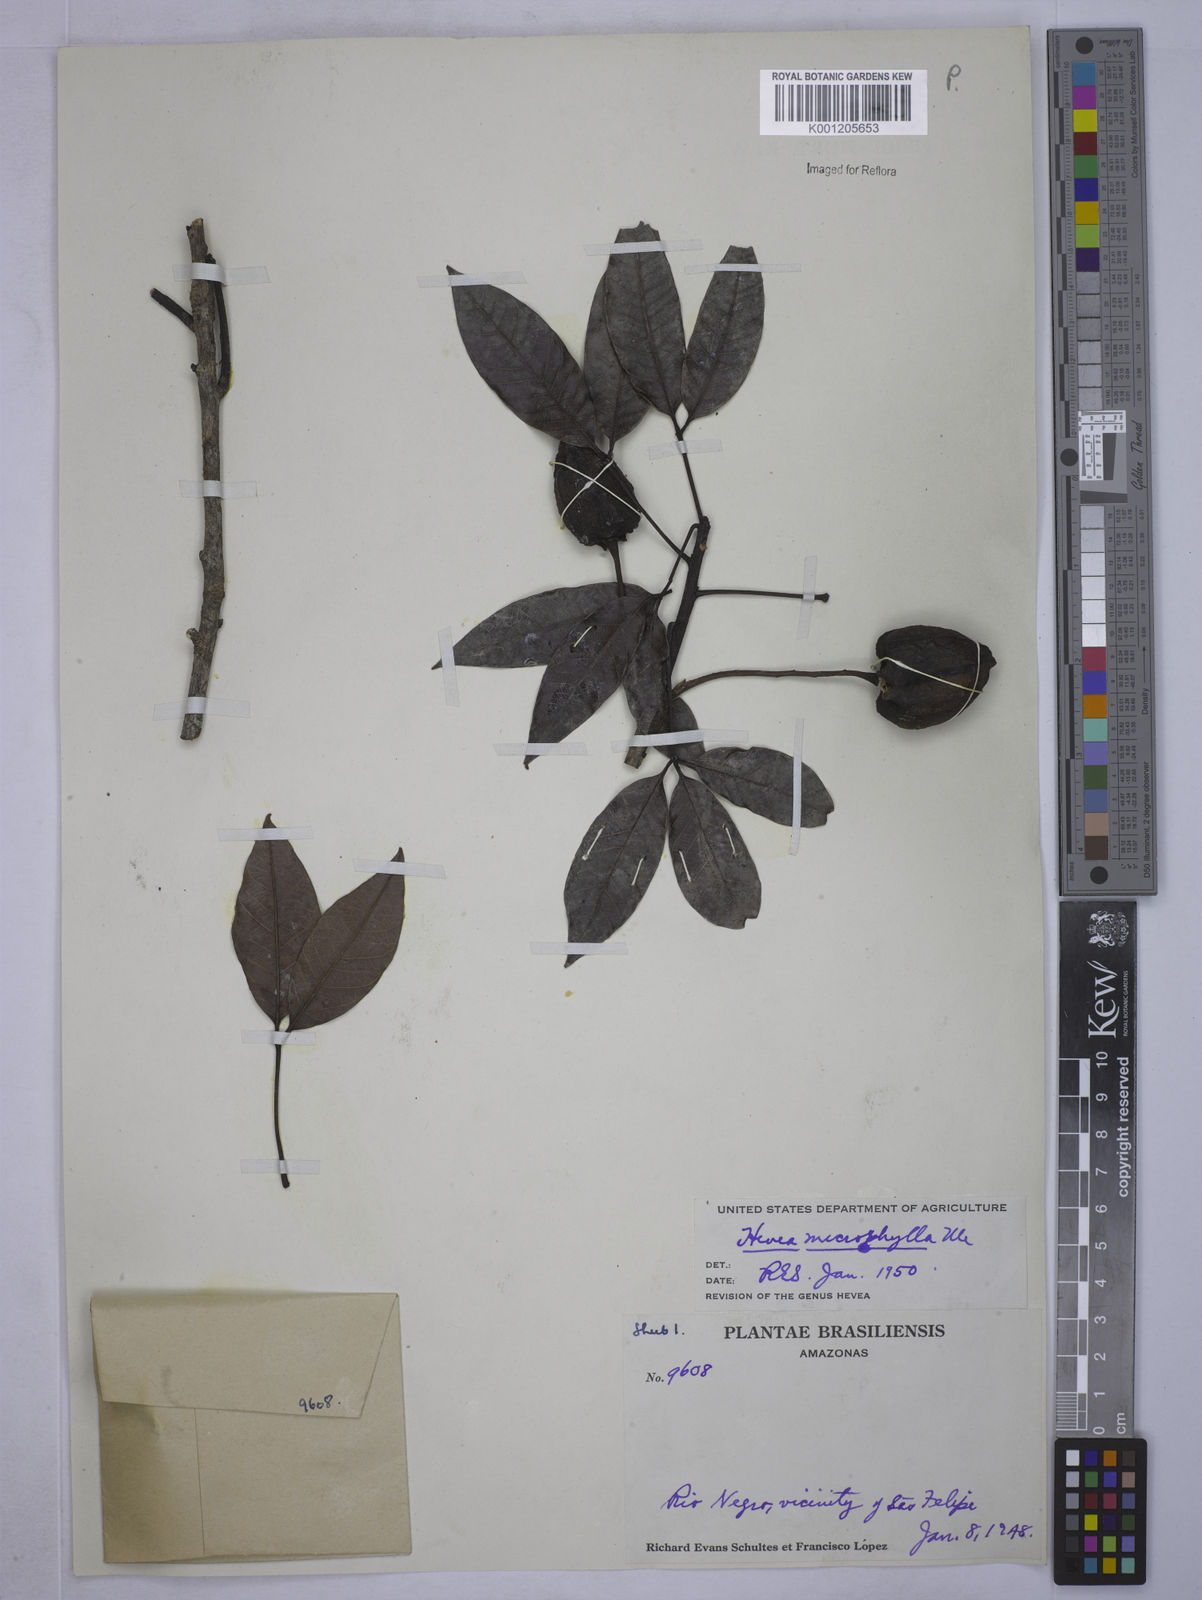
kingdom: Plantae
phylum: Tracheophyta
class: Magnoliopsida
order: Malpighiales
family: Euphorbiaceae
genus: Hevea
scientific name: Hevea microphylla
